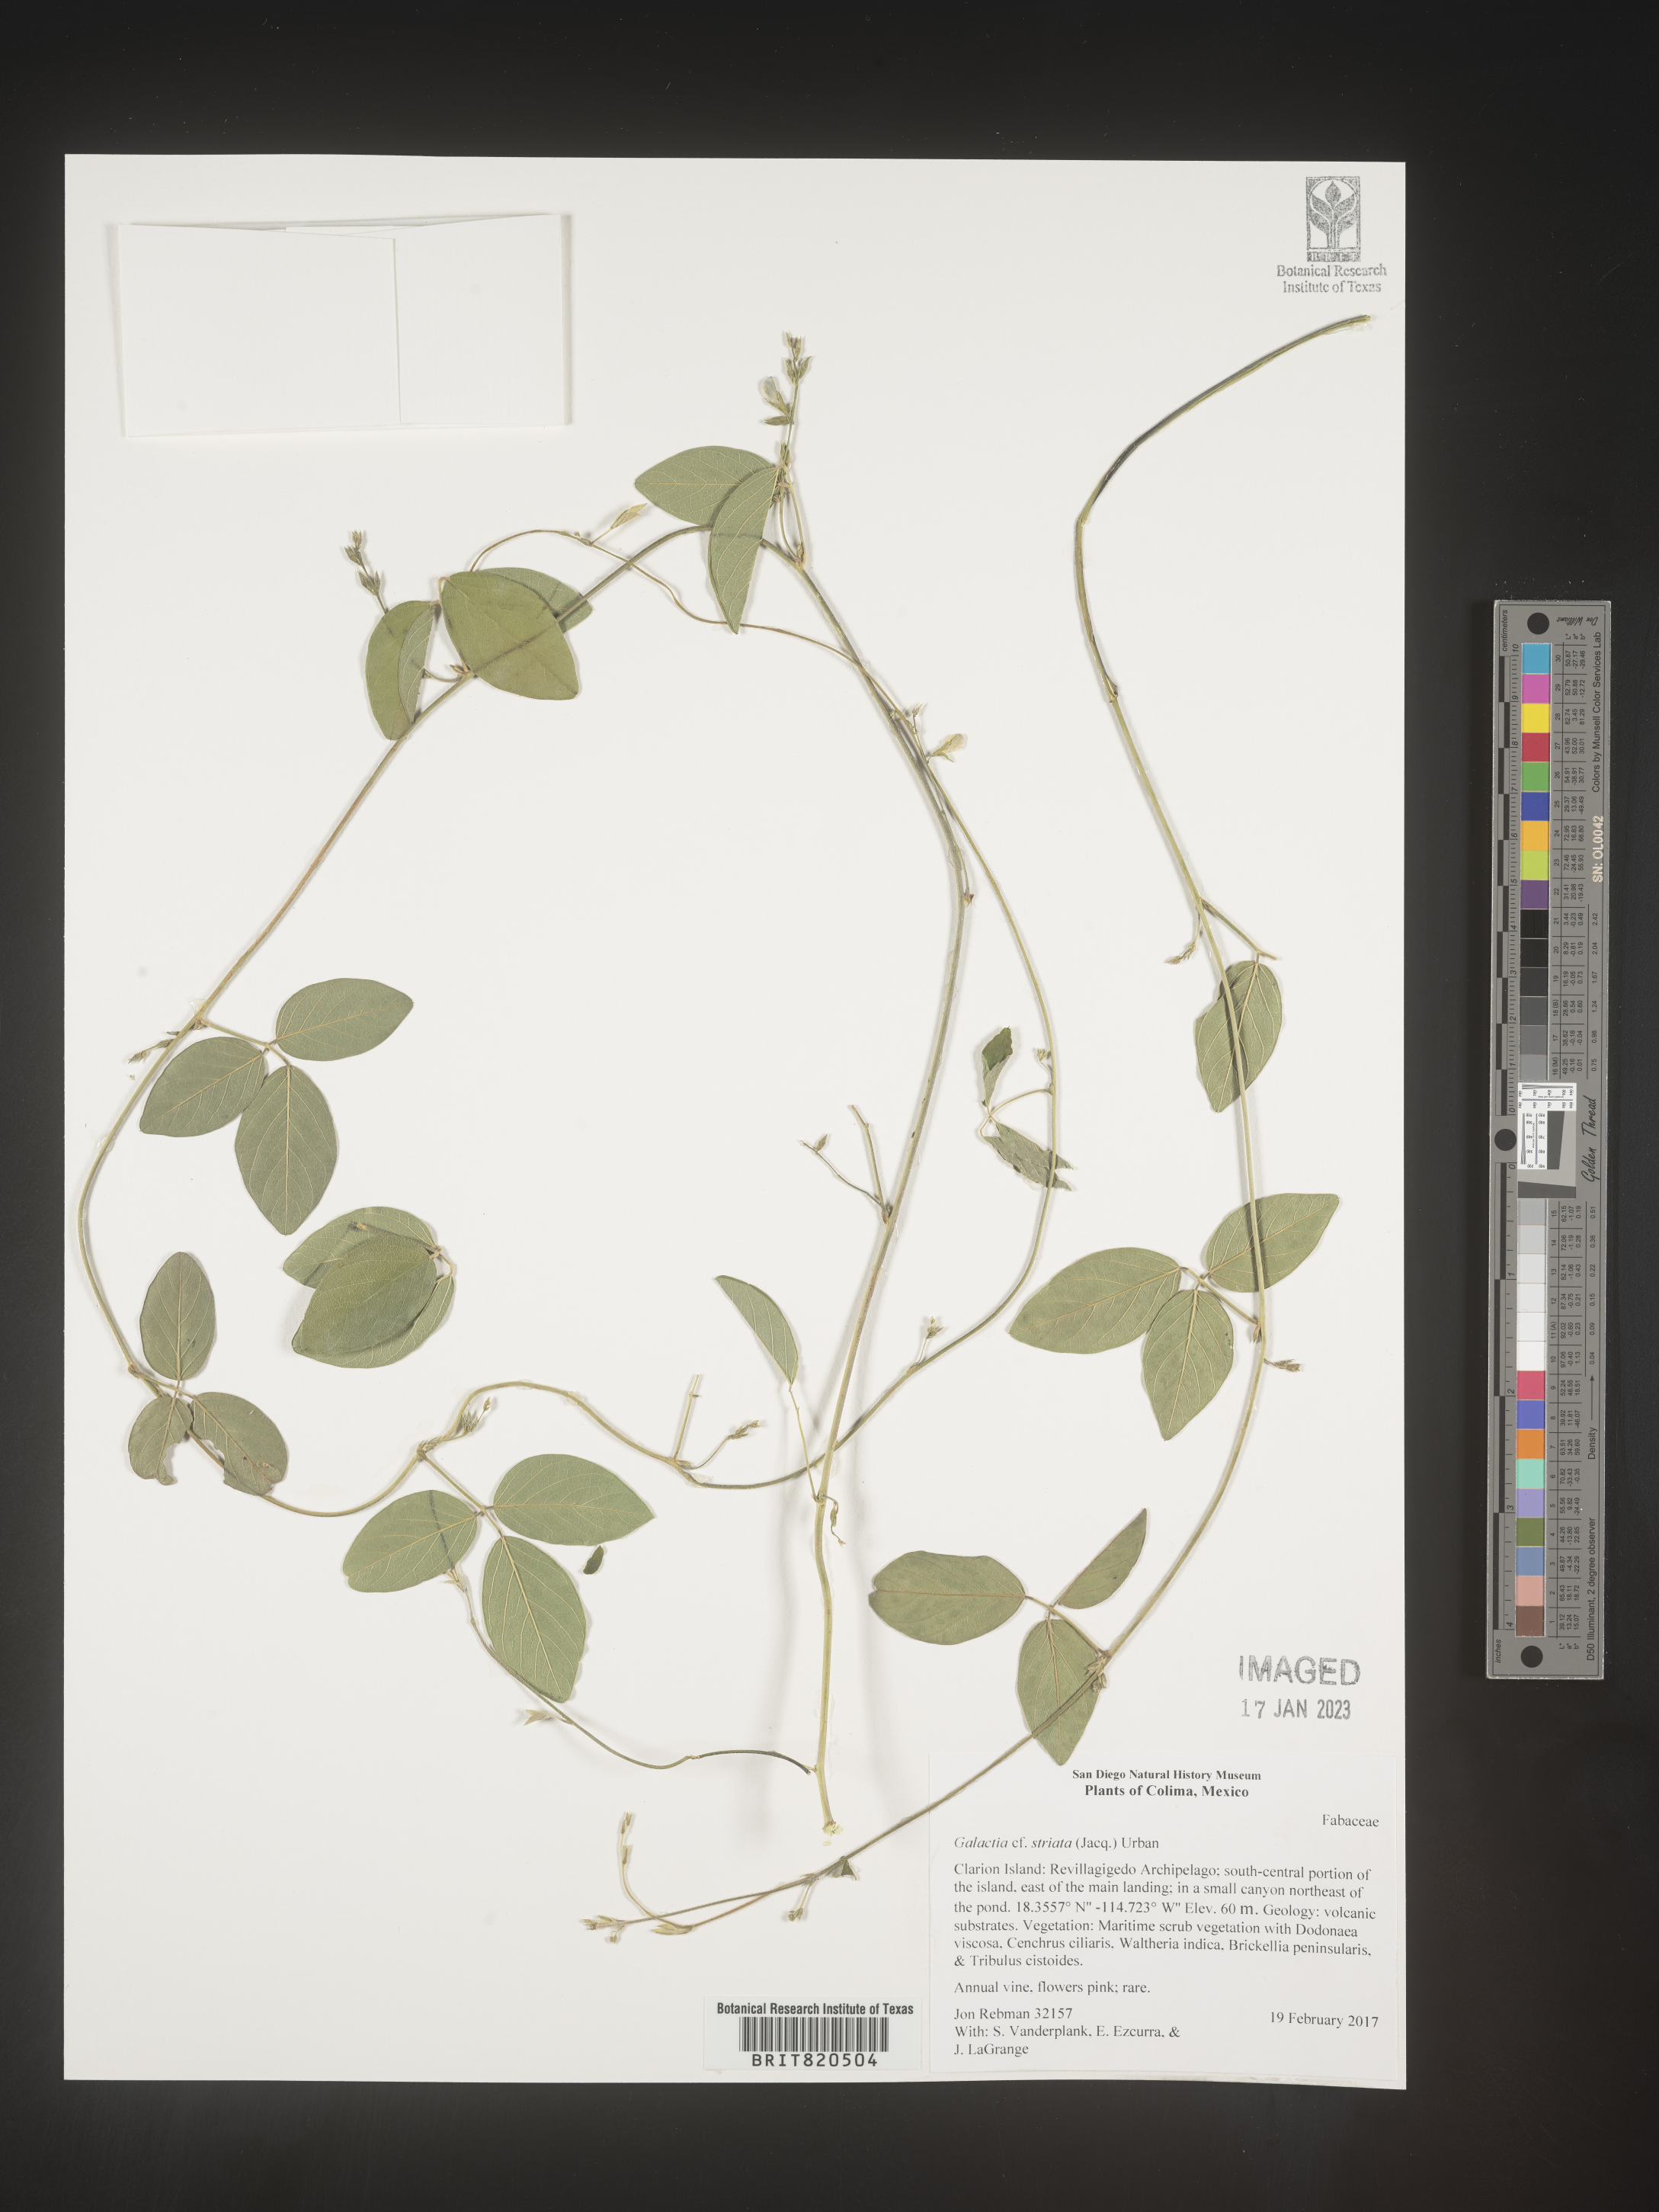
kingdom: Plantae
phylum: Tracheophyta
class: Magnoliopsida
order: Fabales
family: Fabaceae
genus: Galactia
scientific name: Galactia
